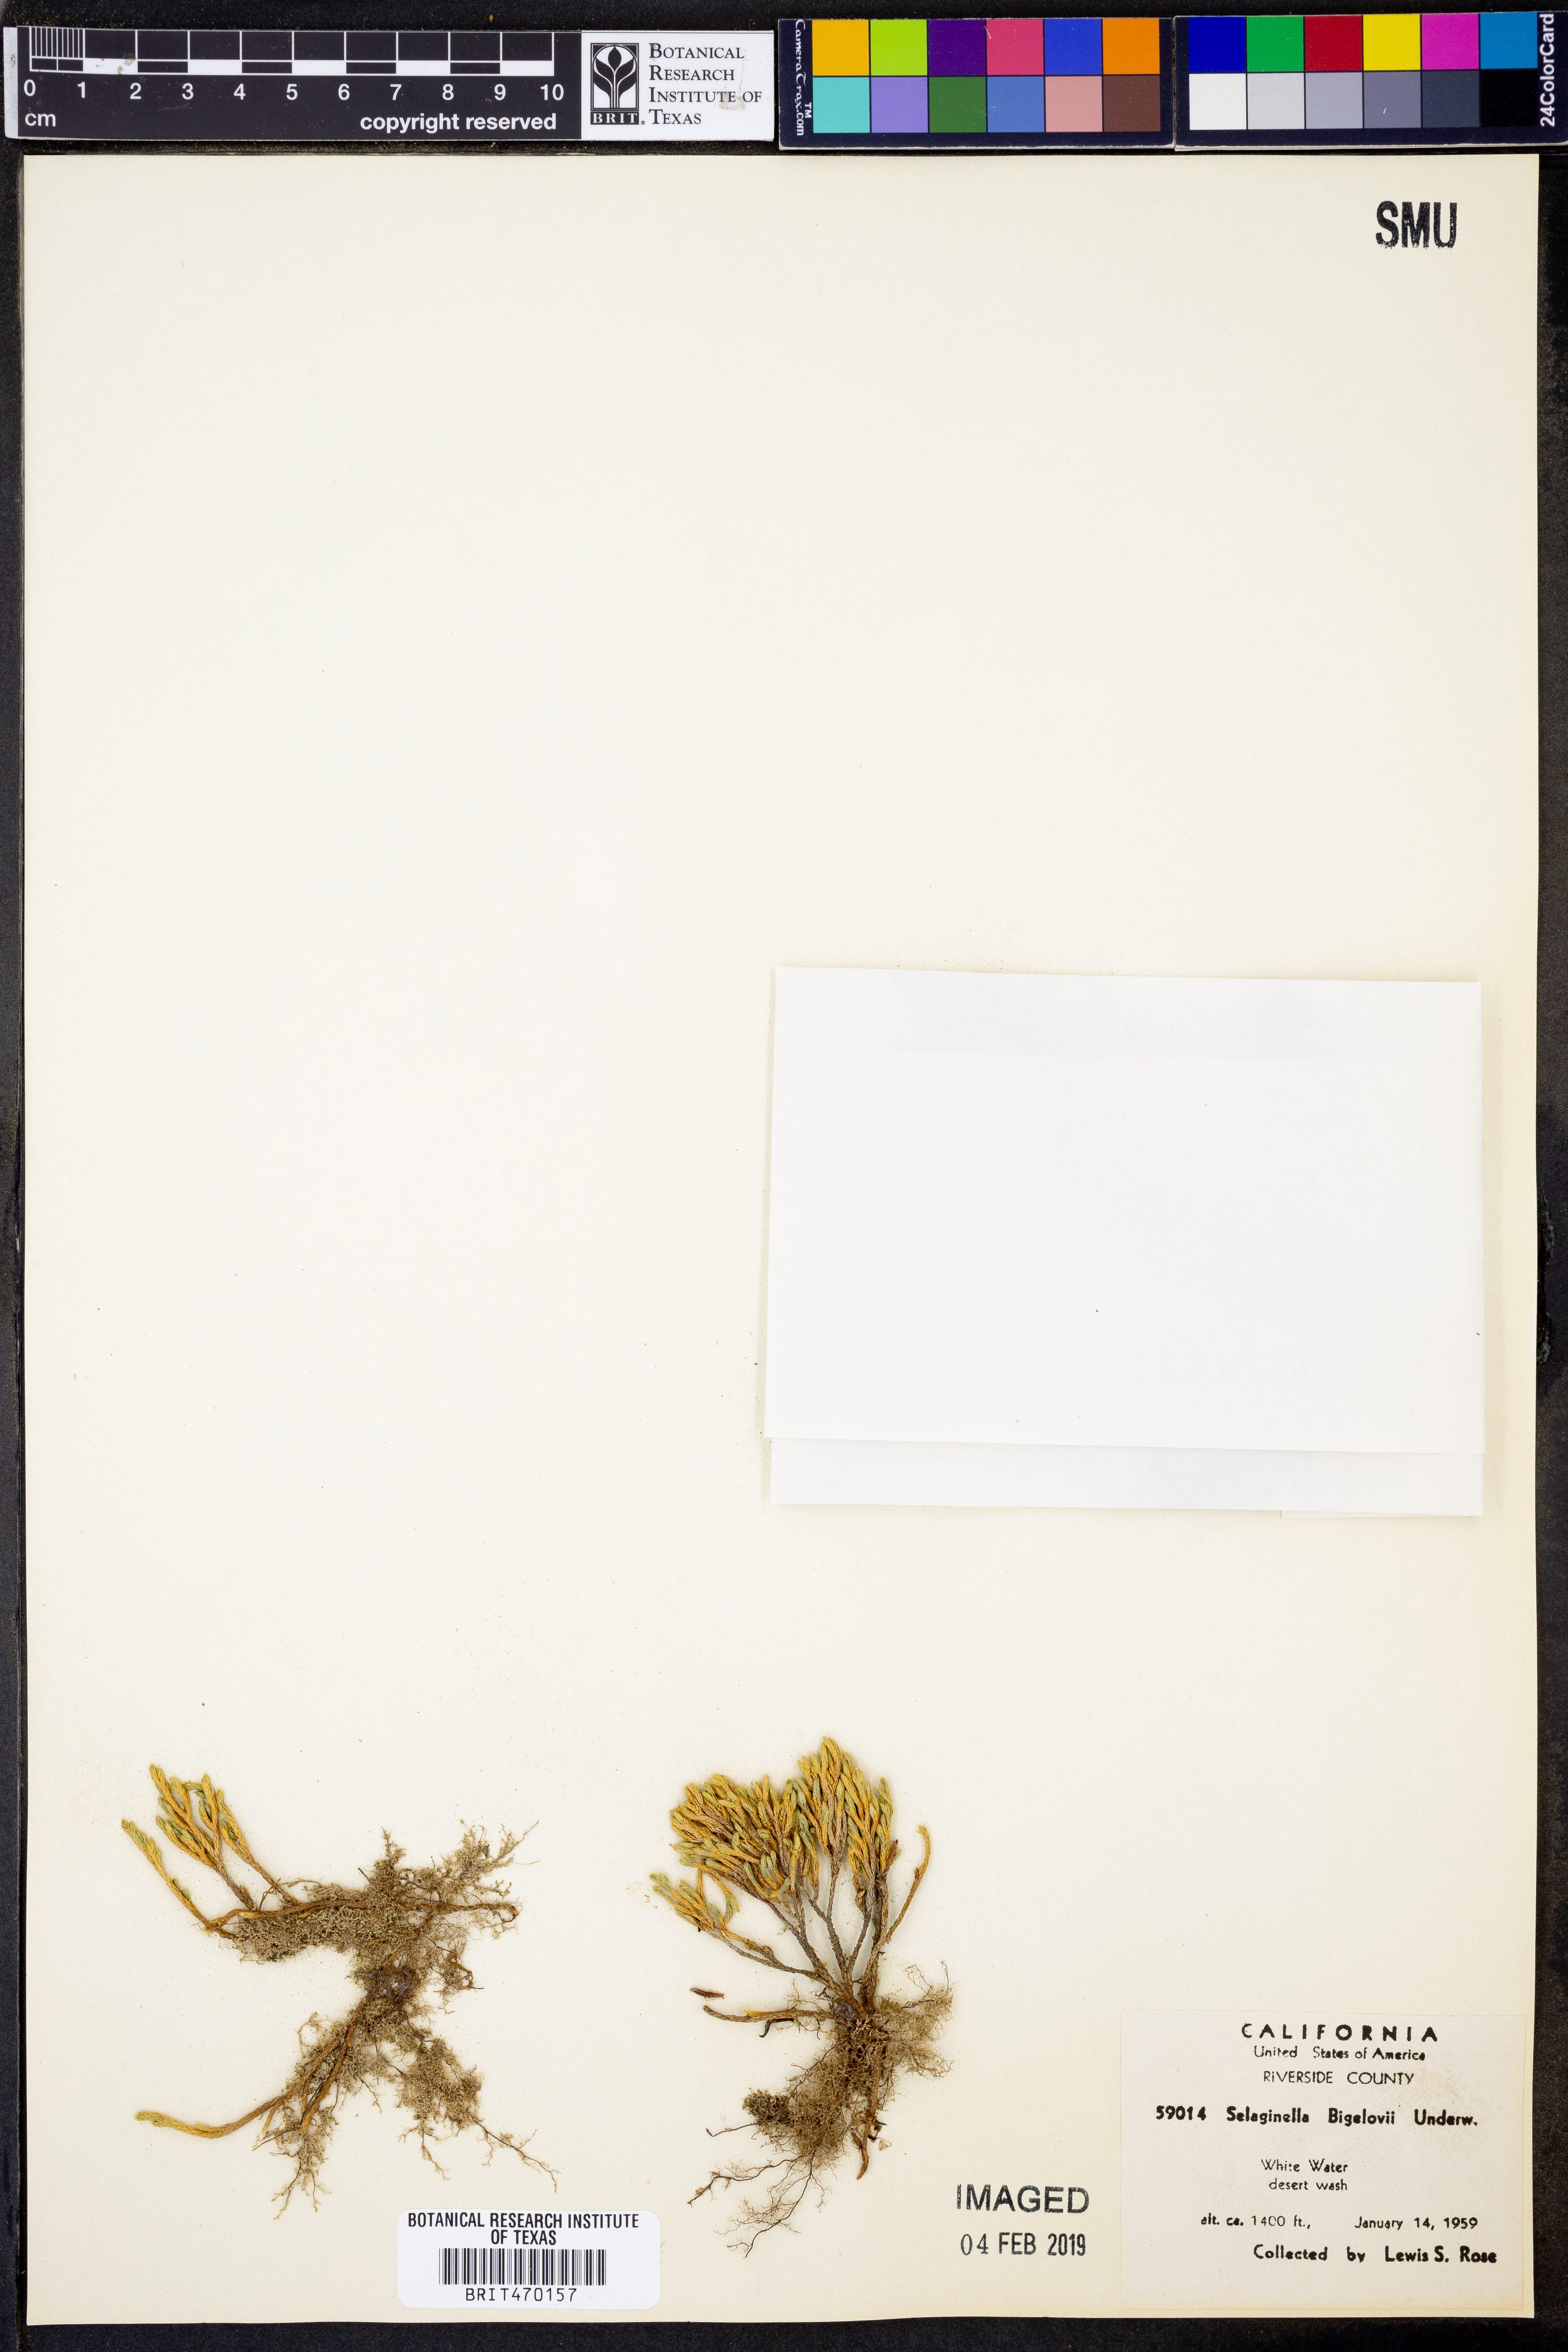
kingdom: Plantae
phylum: Tracheophyta
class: Lycopodiopsida
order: Selaginellales
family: Selaginellaceae
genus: Selaginella
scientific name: Selaginella bigelovii
